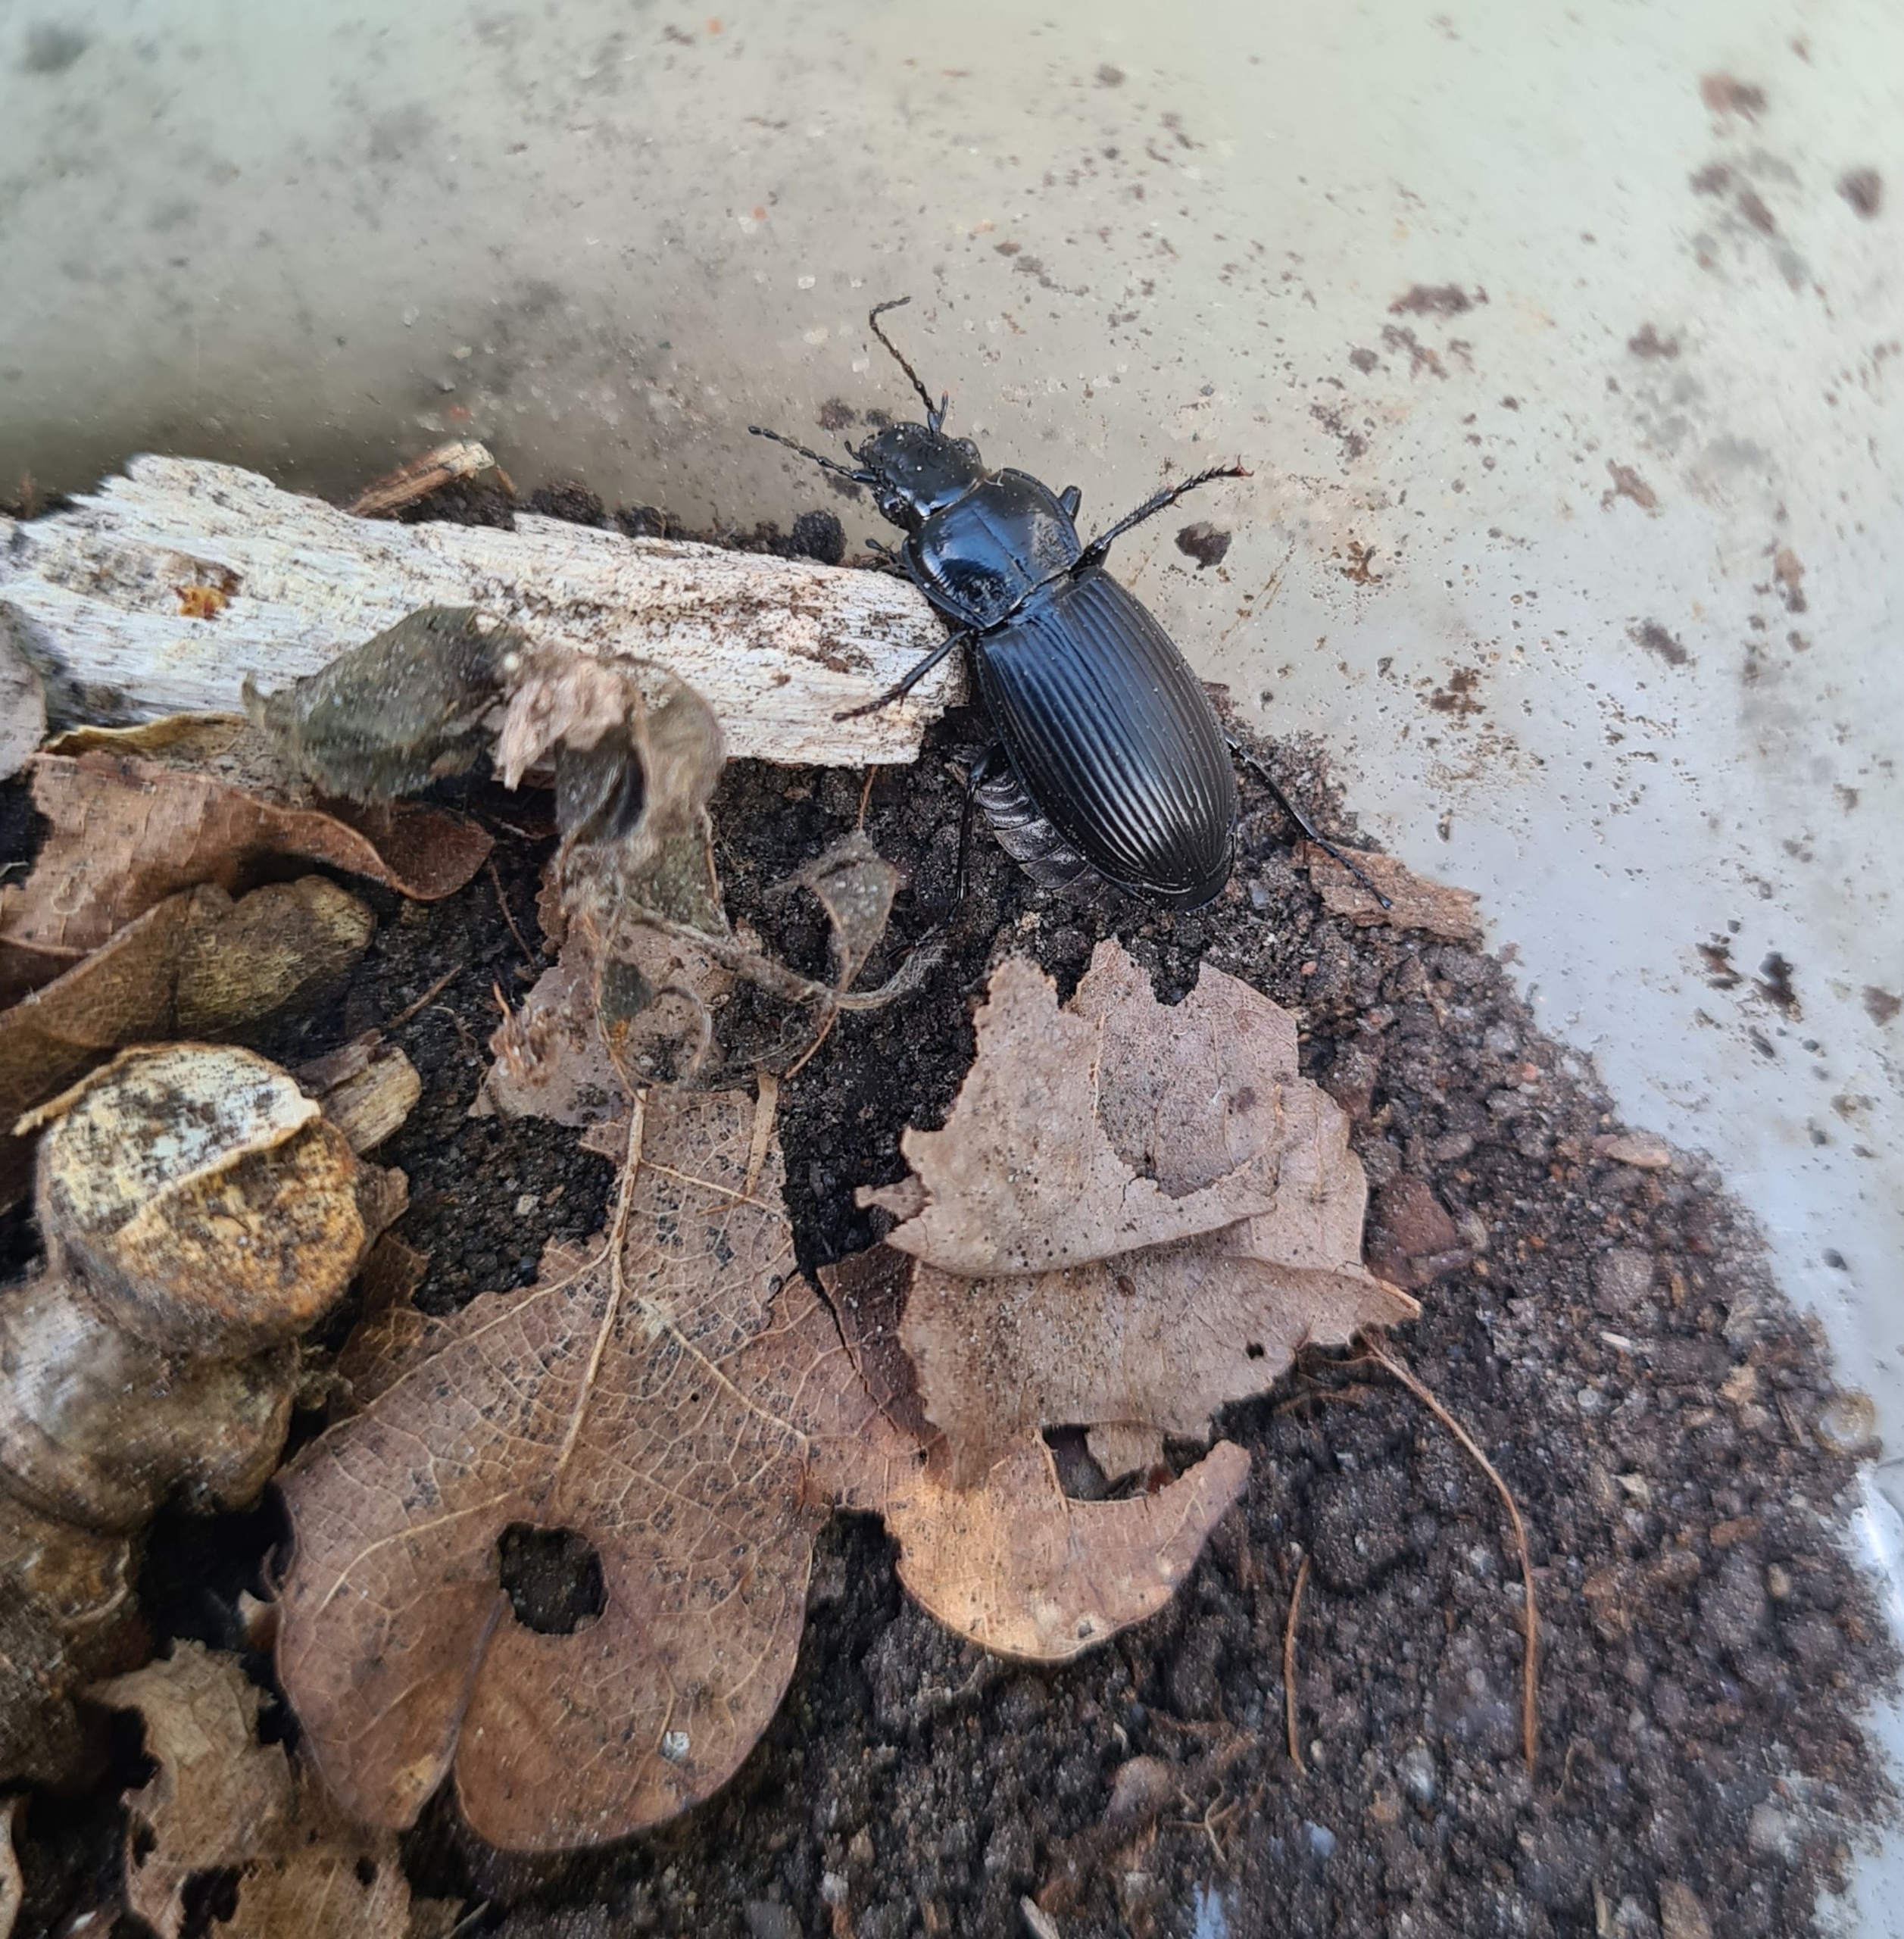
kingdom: Animalia
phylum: Arthropoda
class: Insecta
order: Coleoptera
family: Carabidae
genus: Pterostichus
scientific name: Pterostichus melanarius
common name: Markjordløber
